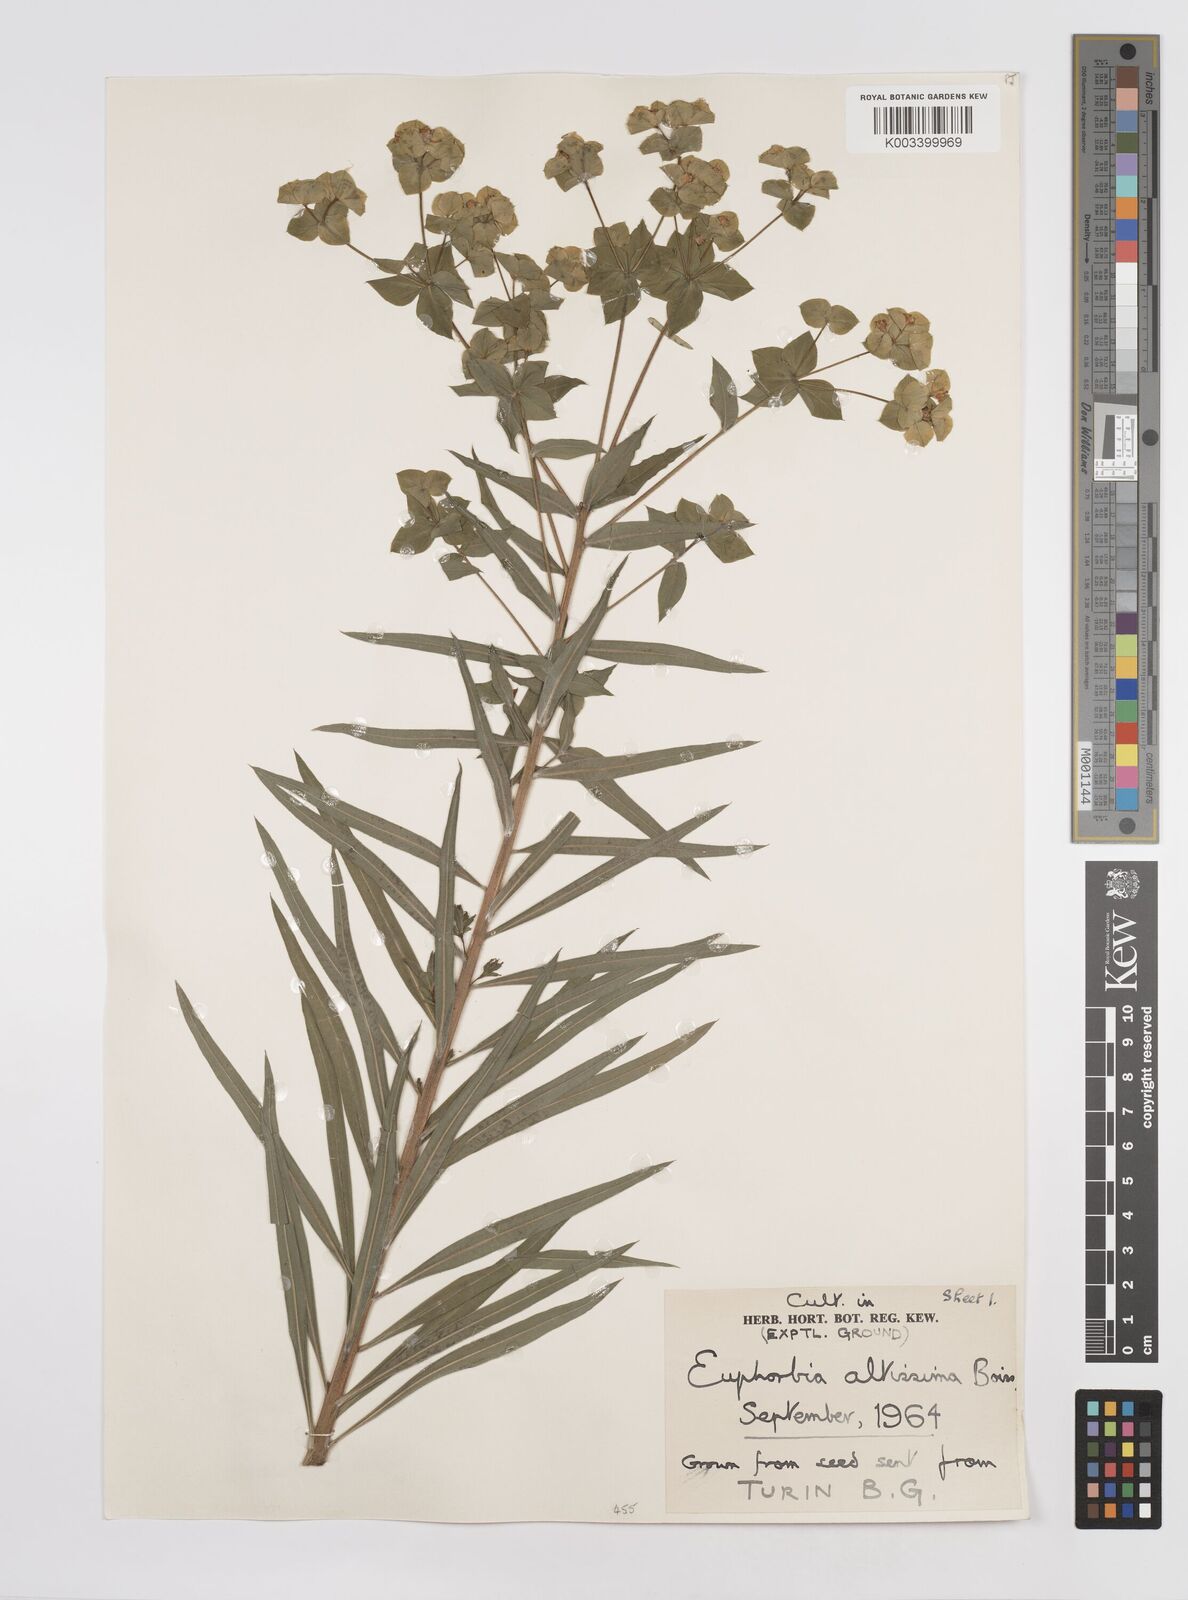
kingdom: Plantae
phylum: Tracheophyta
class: Magnoliopsida
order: Malpighiales
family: Euphorbiaceae
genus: Euphorbia
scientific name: Euphorbia altissima
